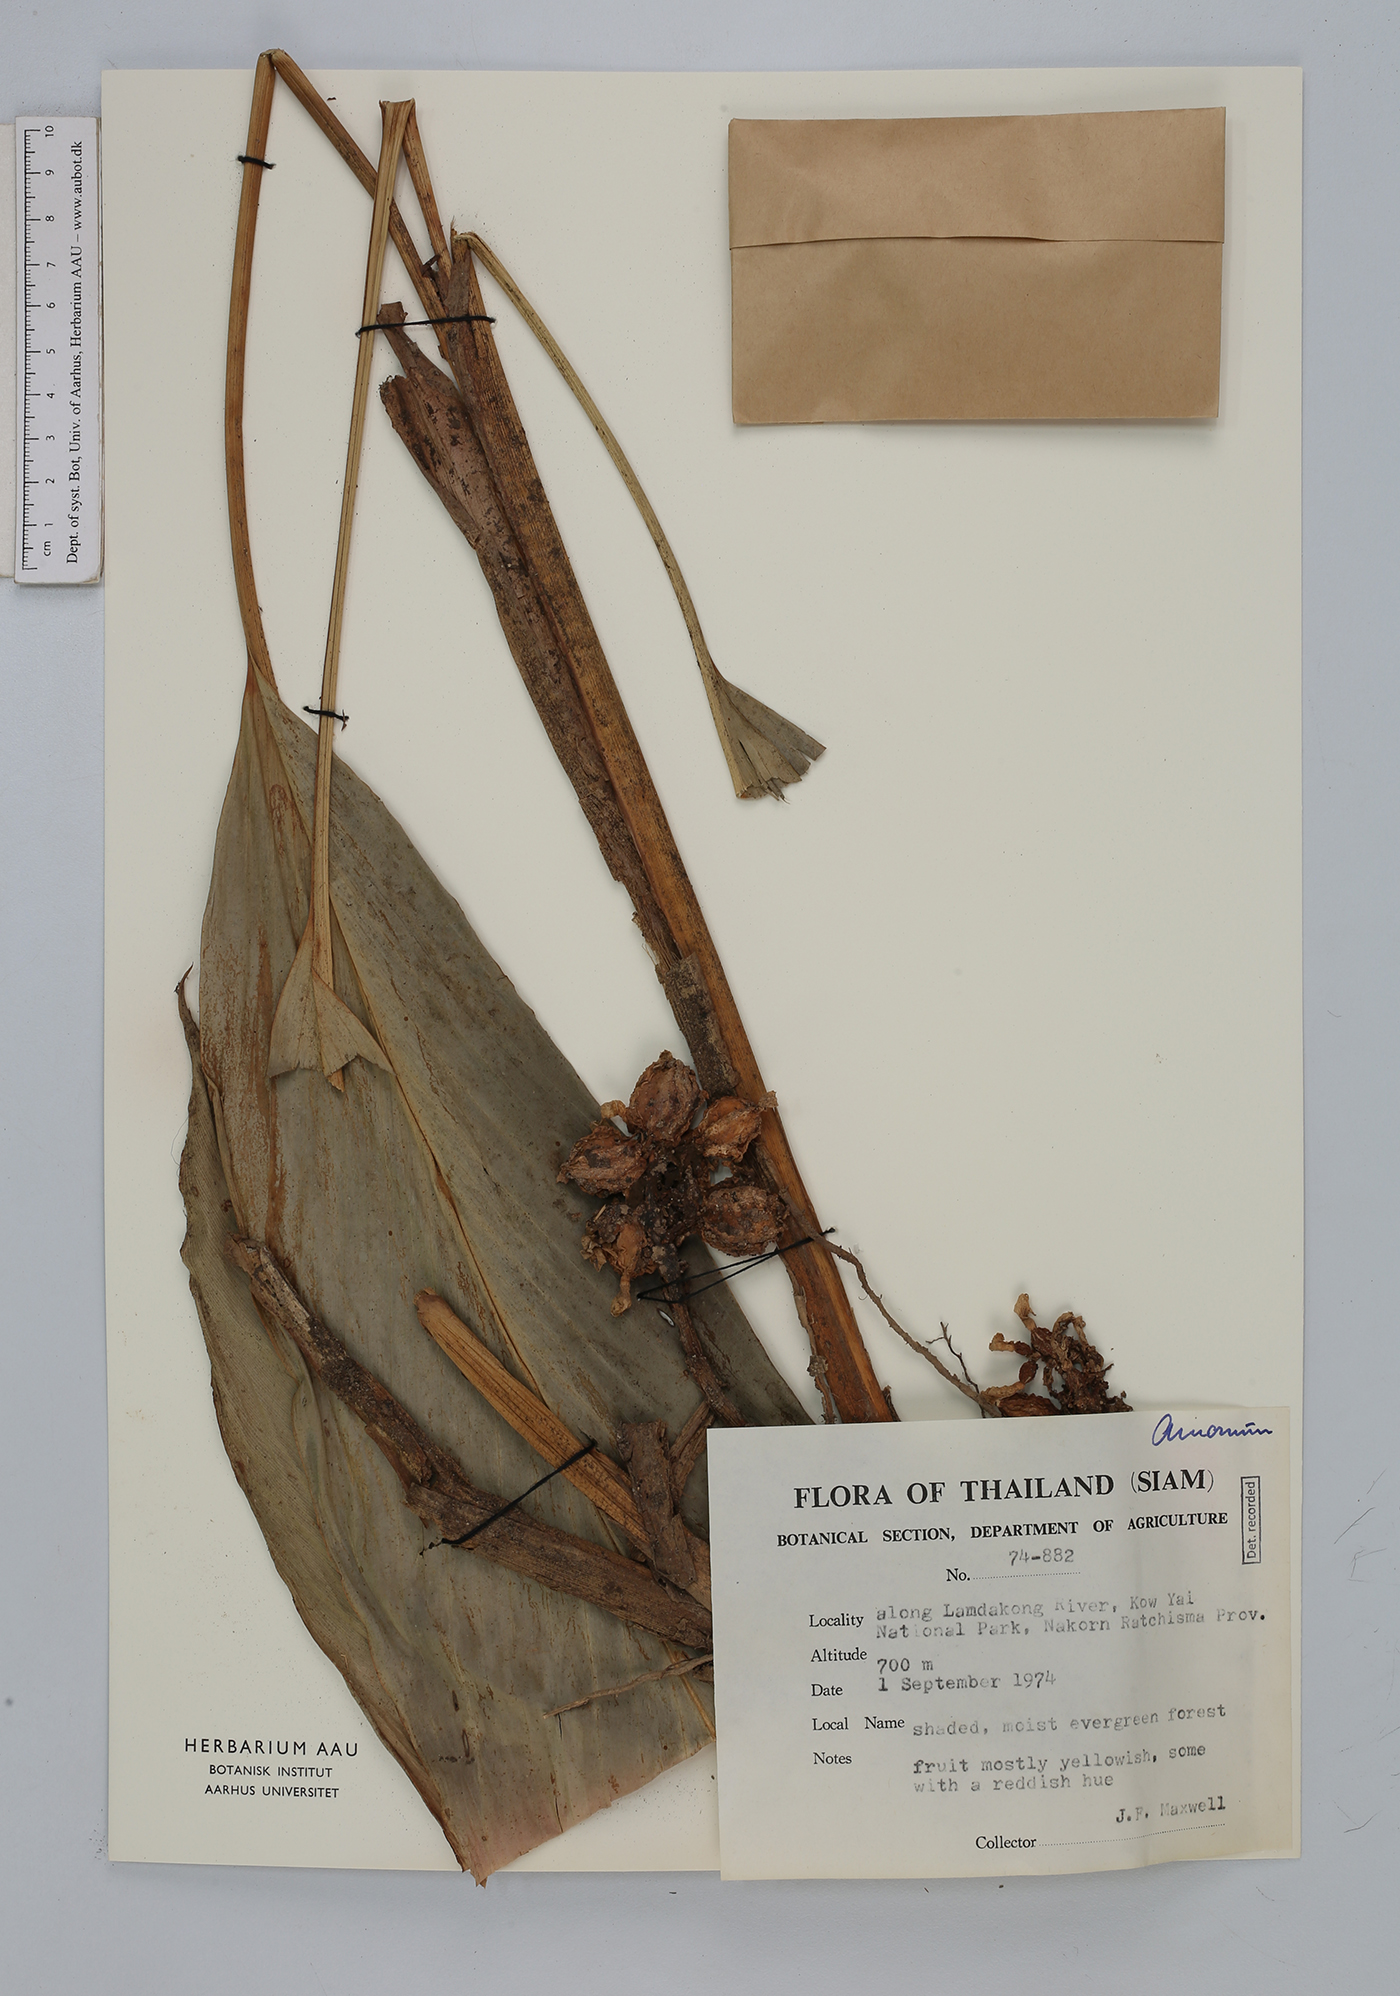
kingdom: Plantae
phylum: Tracheophyta
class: Liliopsida
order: Zingiberales
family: Zingiberaceae
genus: Amomum
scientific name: Amomum
